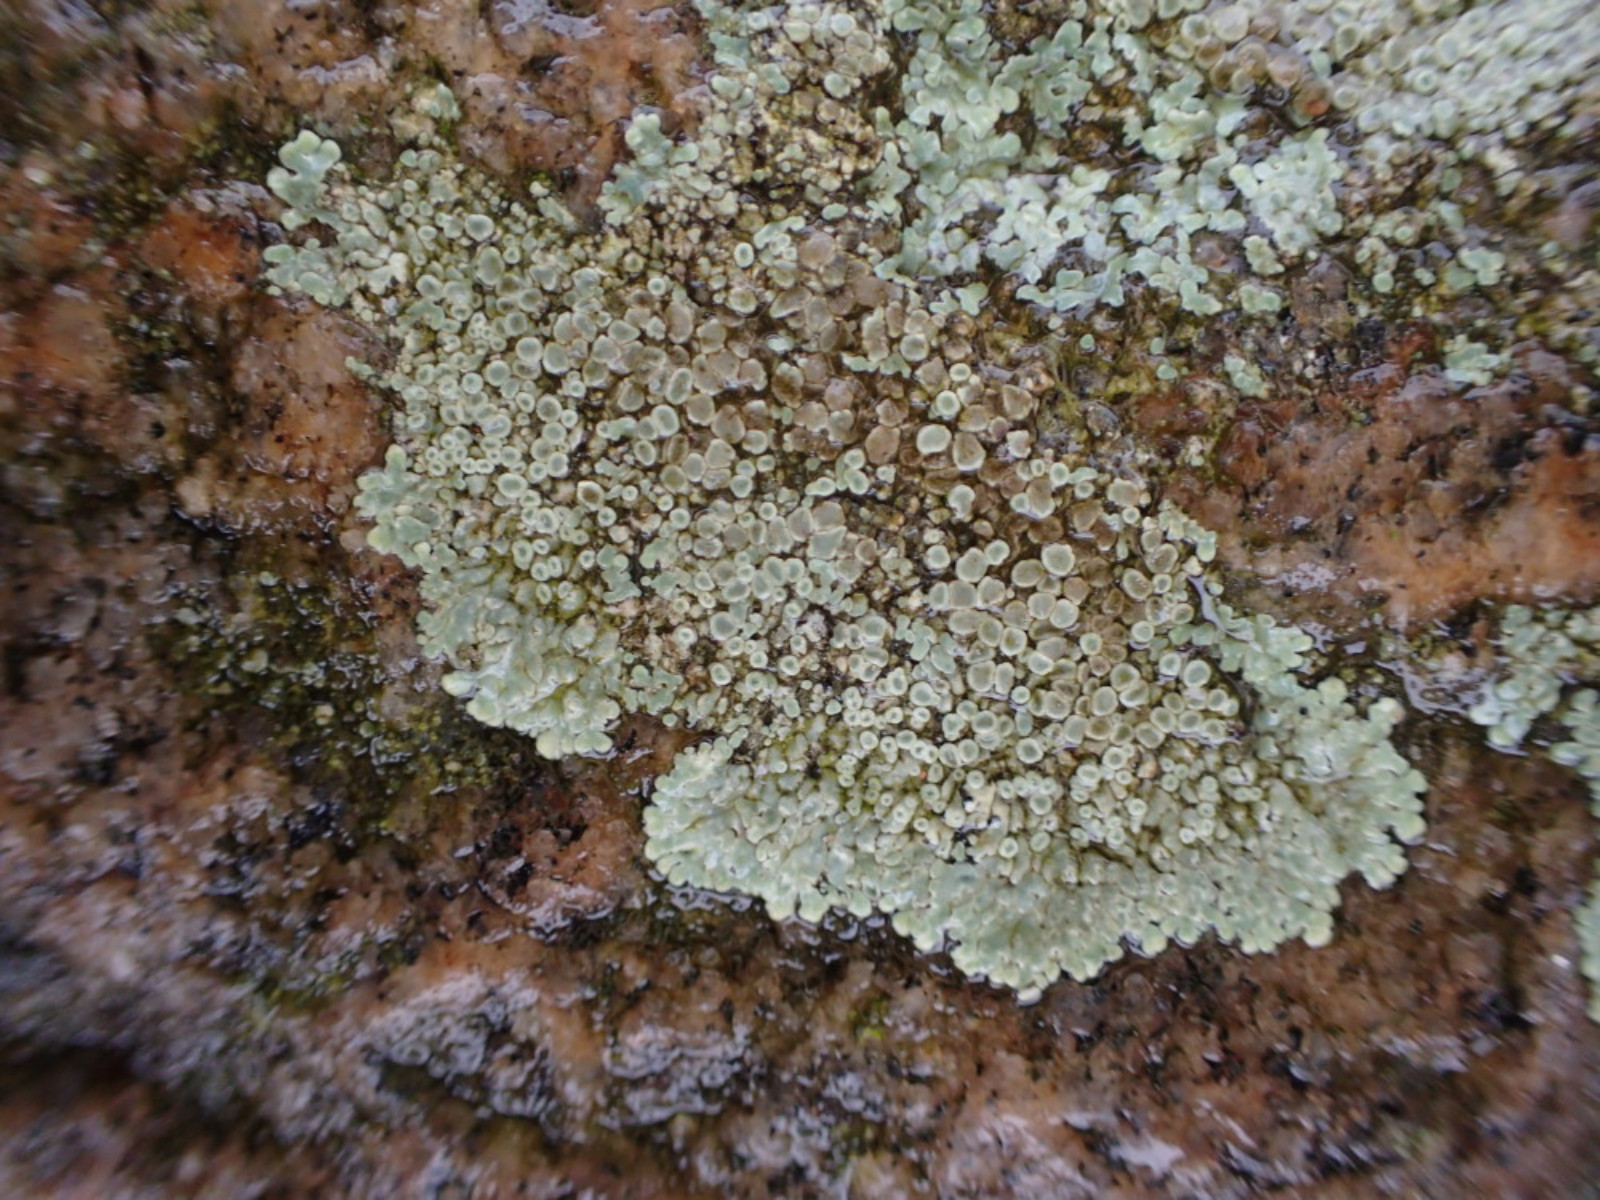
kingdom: Fungi
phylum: Ascomycota
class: Lecanoromycetes
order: Lecanorales
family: Lecanoraceae
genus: Protoparmeliopsis
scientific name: Protoparmeliopsis muralis
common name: randfliget kantskivelav
